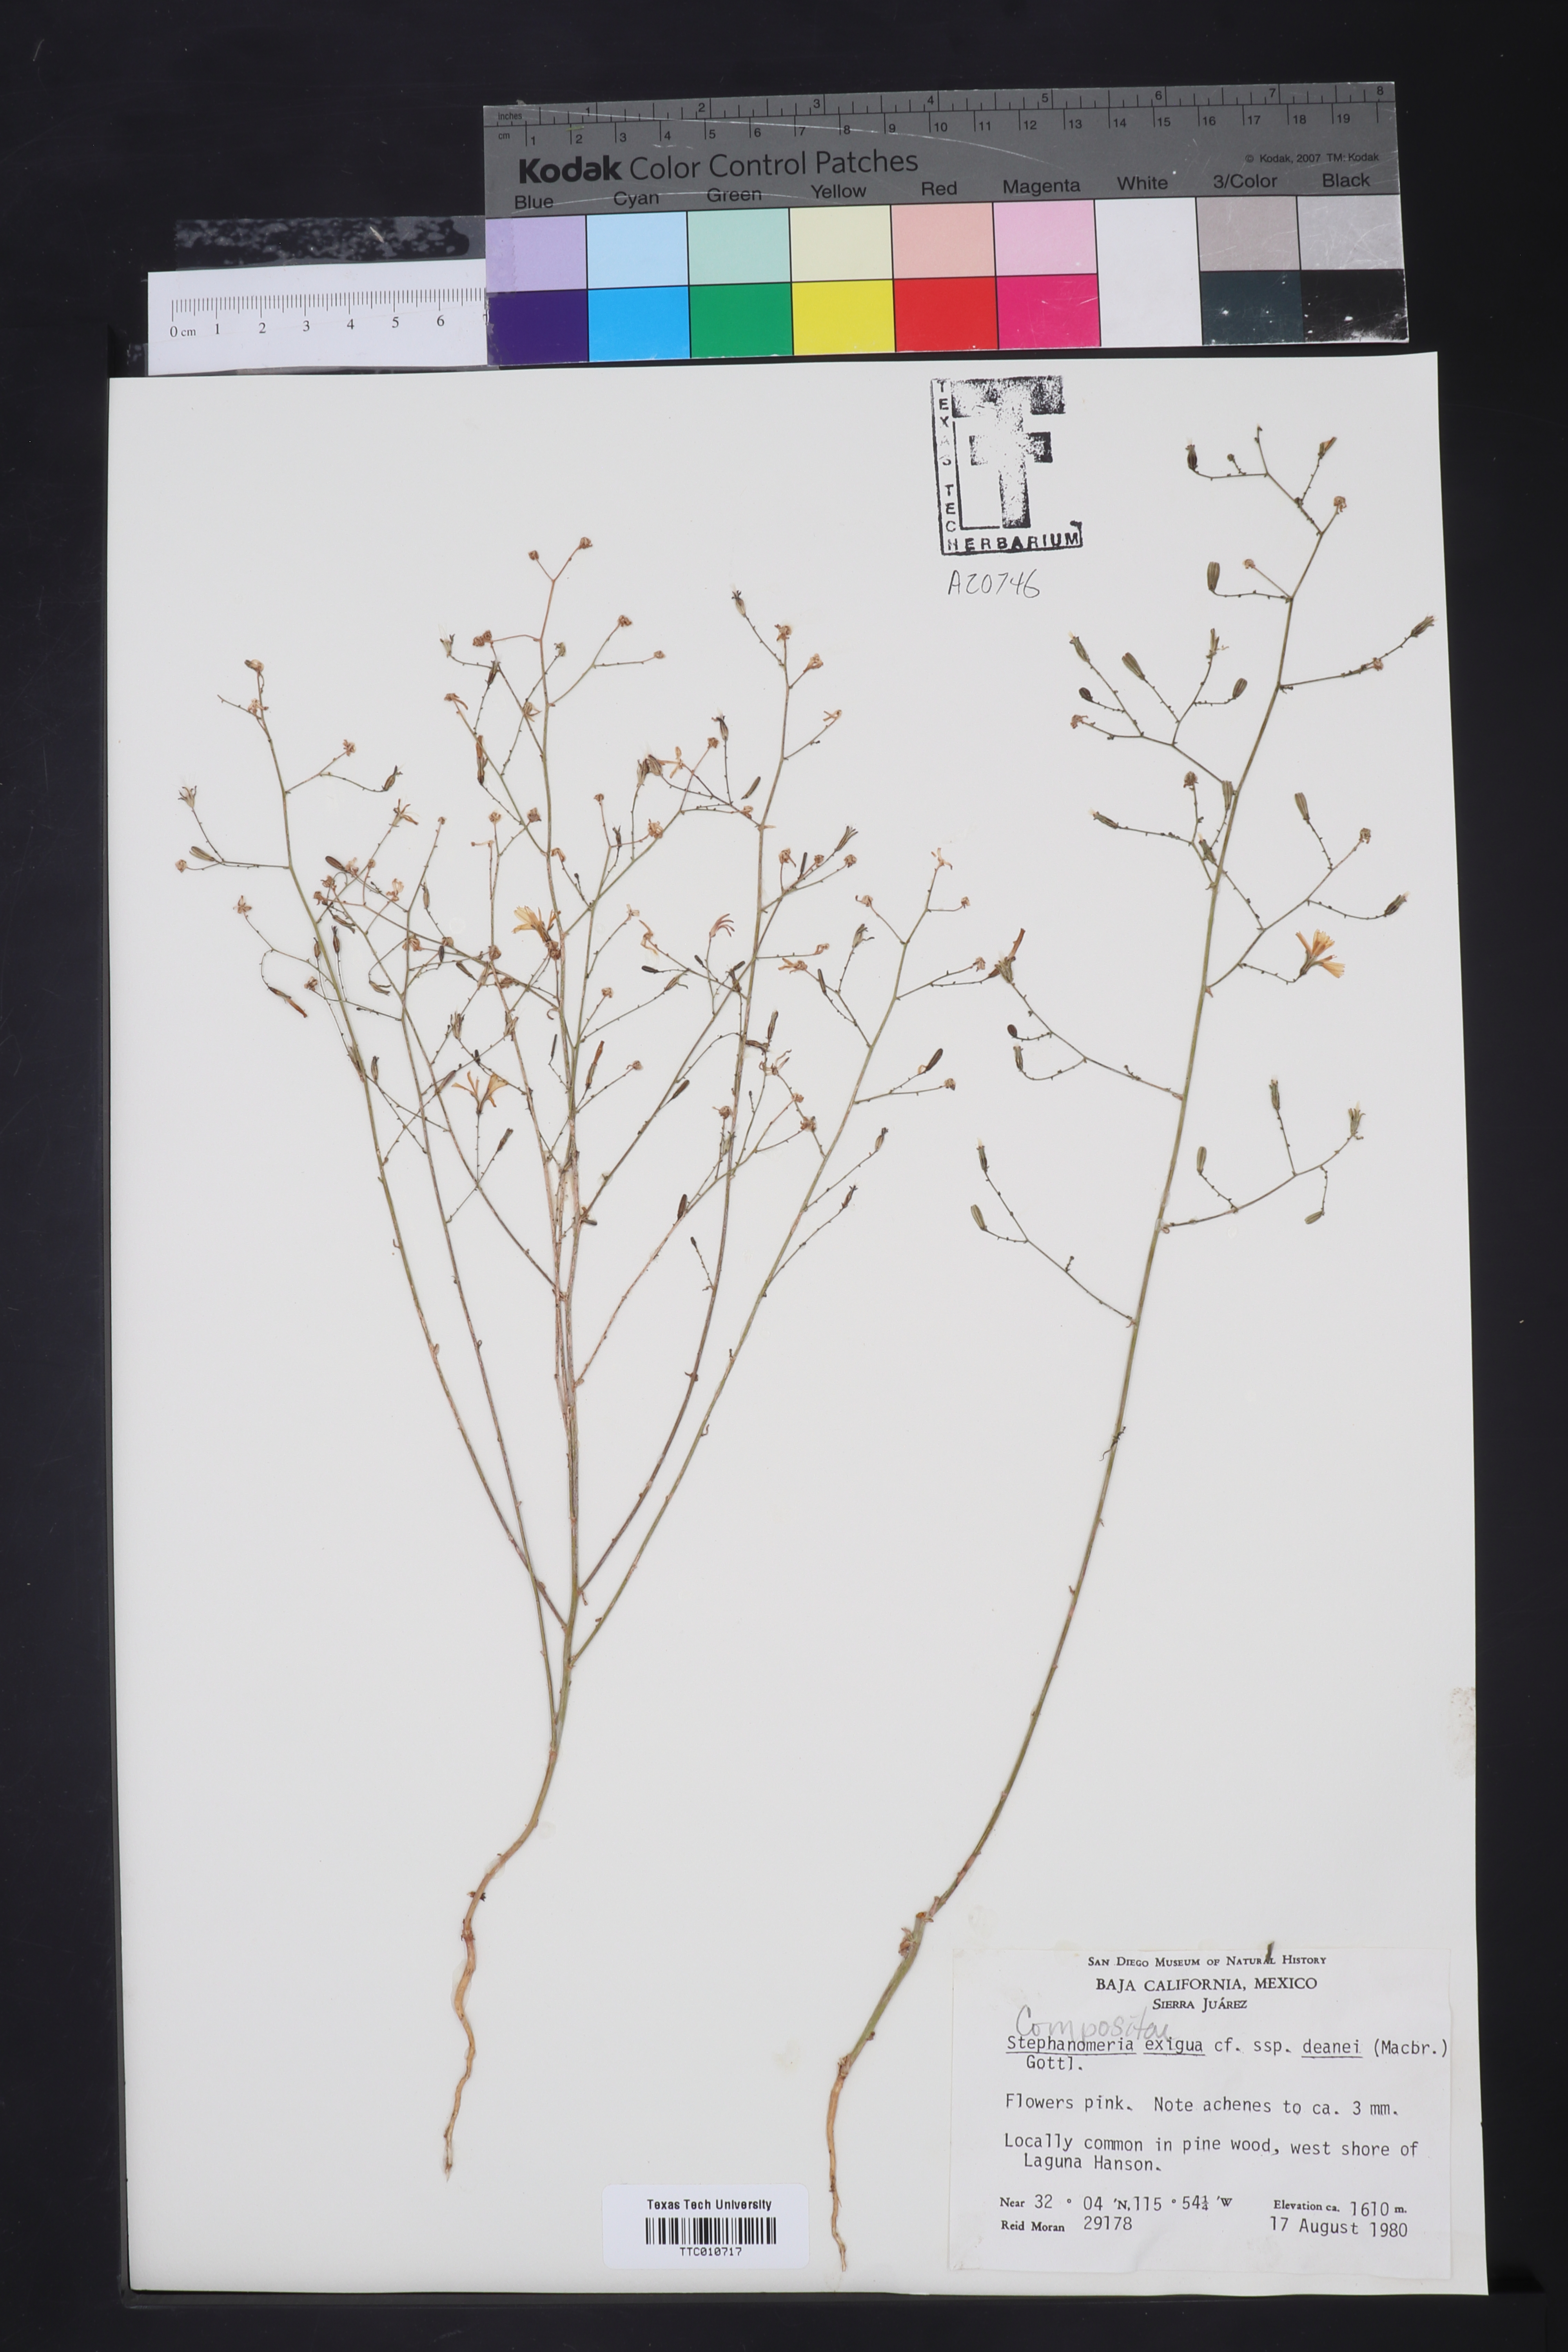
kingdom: Plantae
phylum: Tracheophyta
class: Magnoliopsida
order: Asterales
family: Asteraceae
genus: Stephanomeria
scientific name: Stephanomeria exigua
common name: Small wirelettuce
